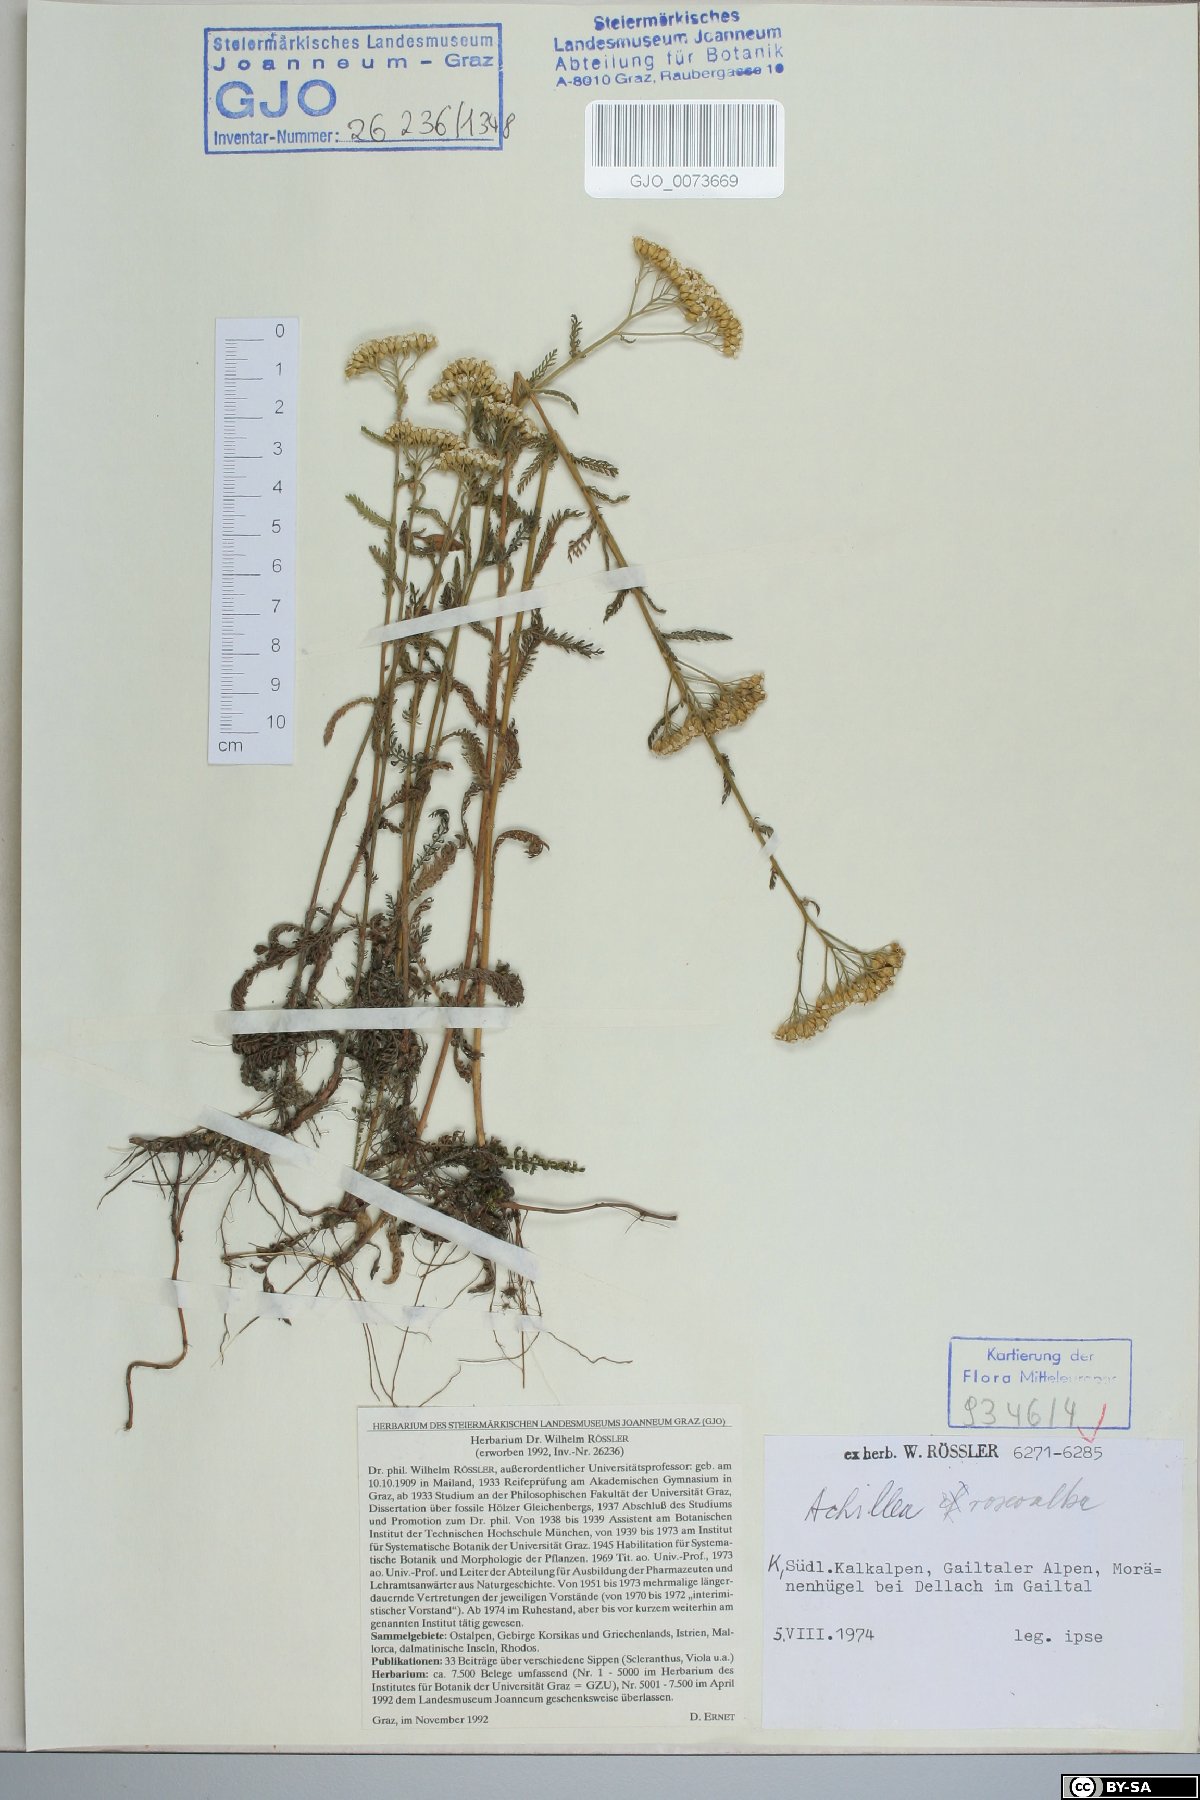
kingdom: Plantae
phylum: Tracheophyta
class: Magnoliopsida
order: Asterales
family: Asteraceae
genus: Achillea
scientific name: Achillea roseoalba
